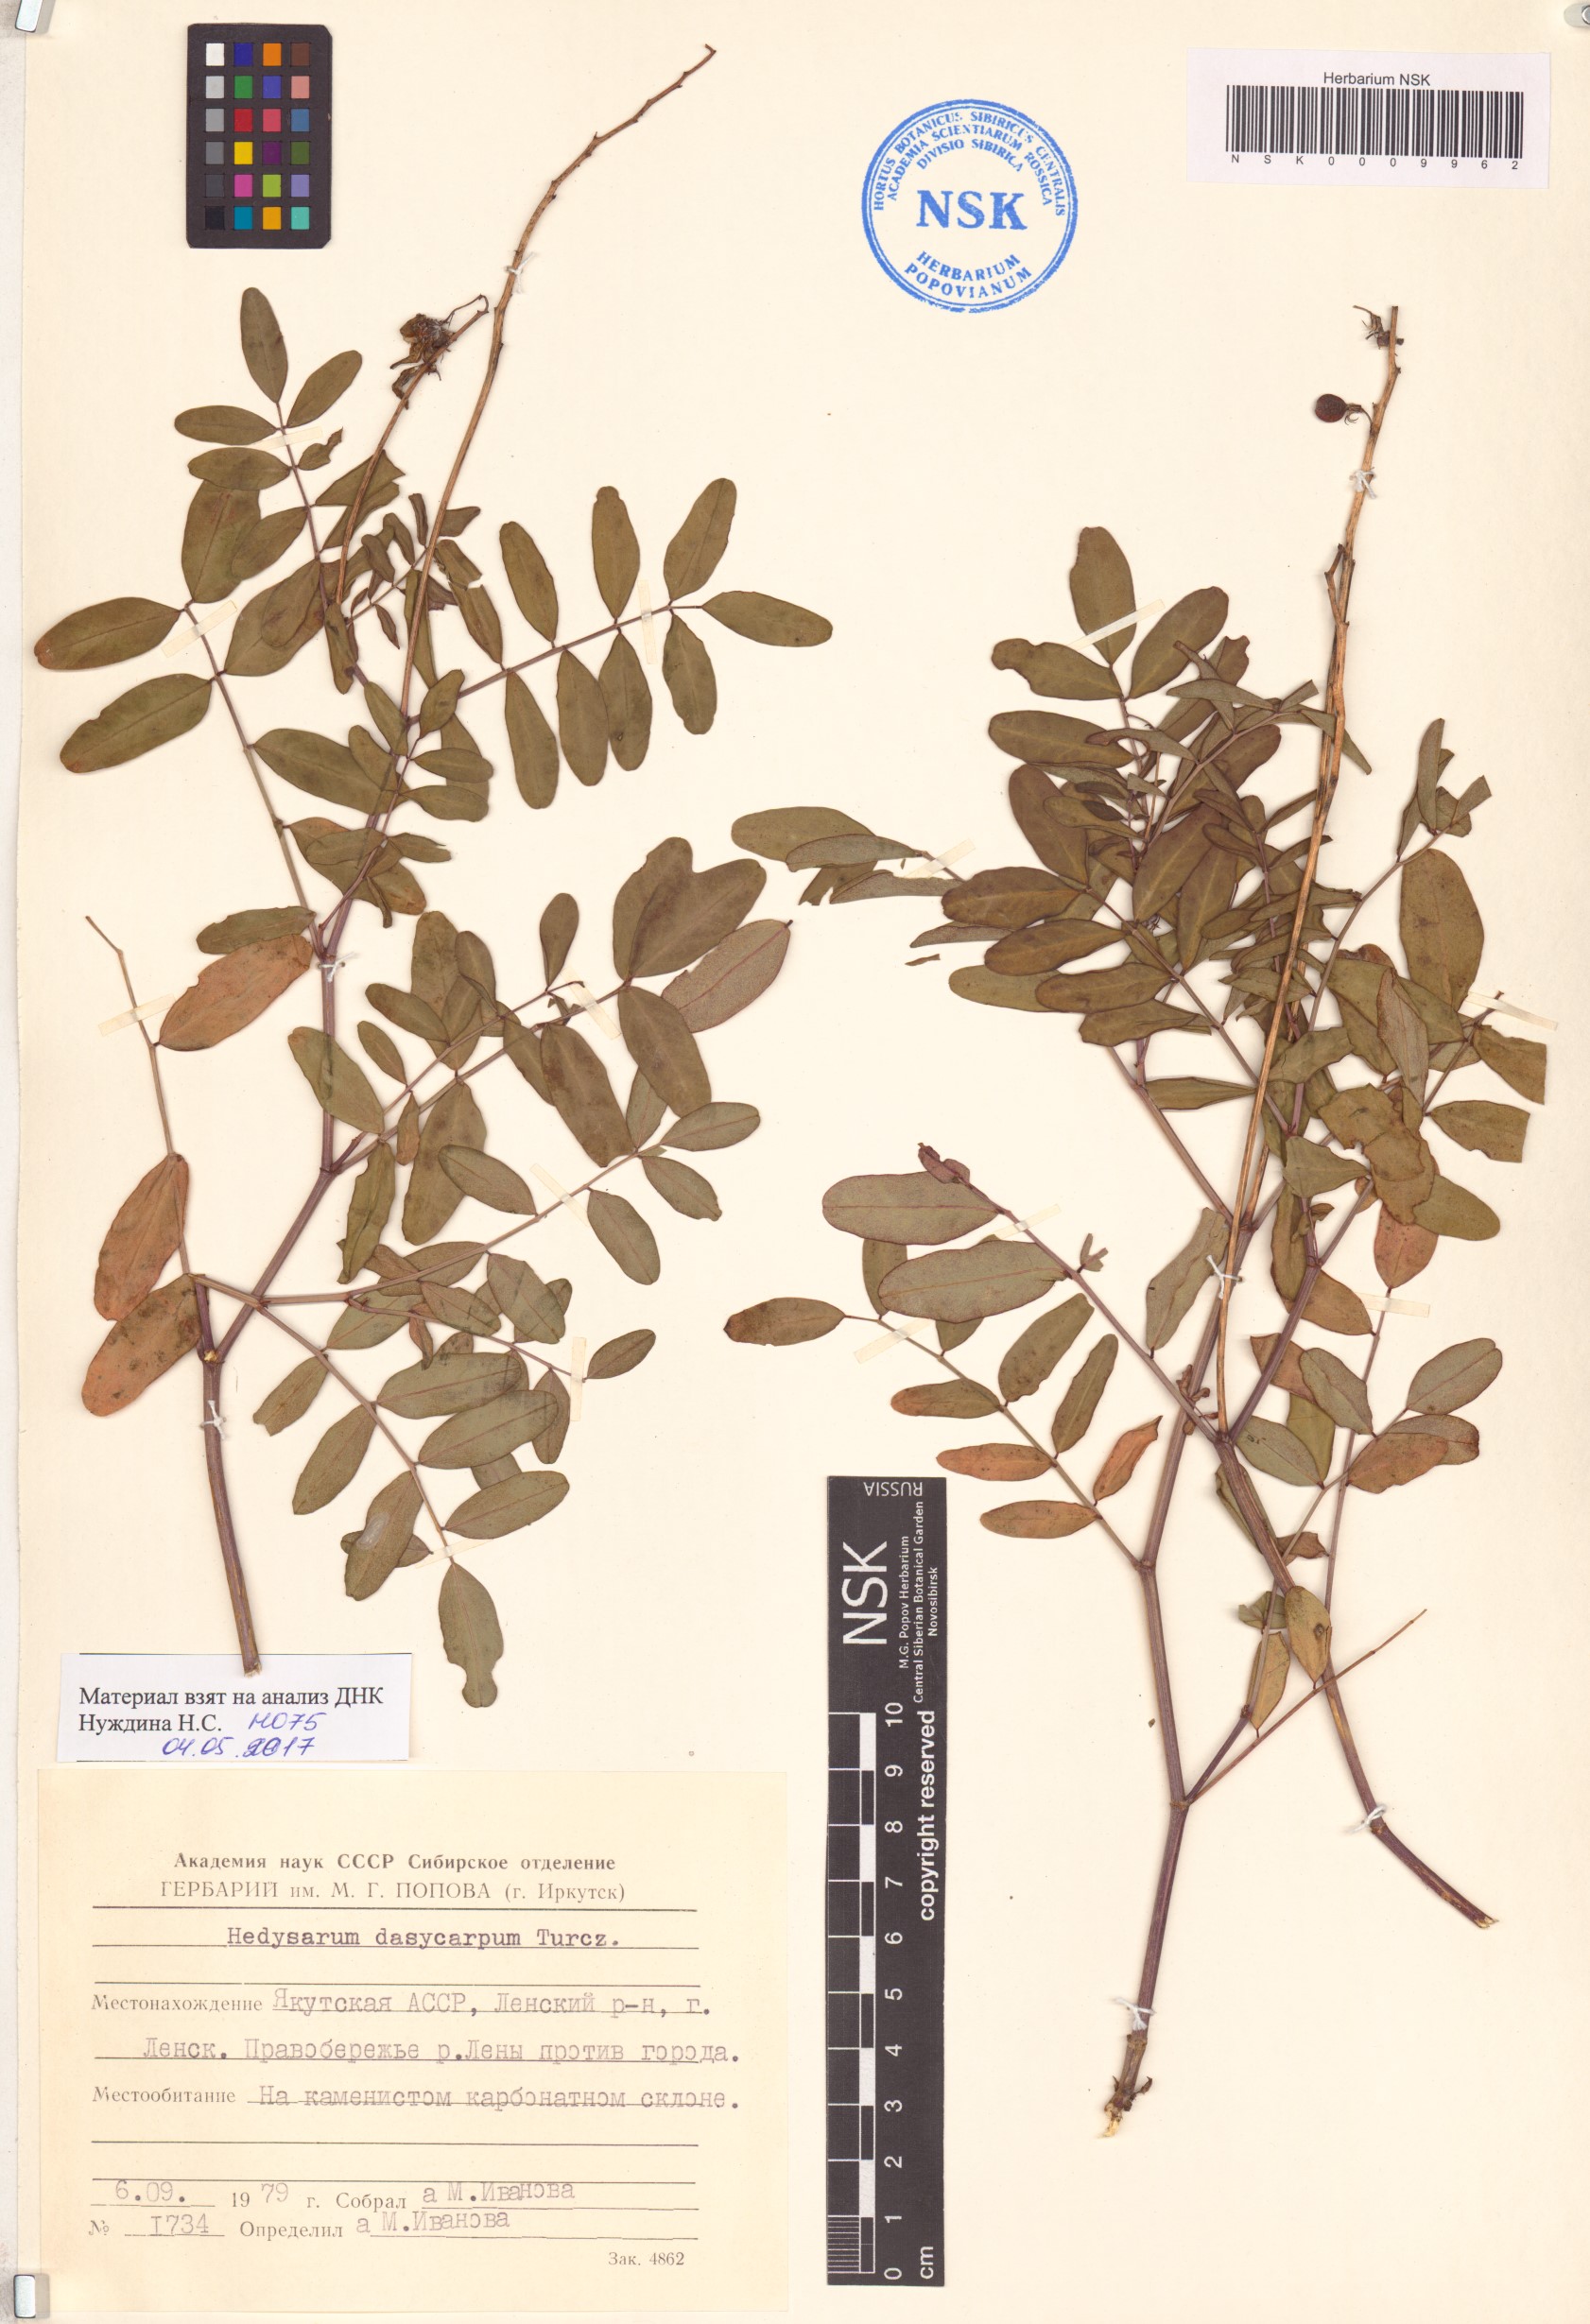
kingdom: Plantae
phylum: Tracheophyta
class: Magnoliopsida
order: Fabales
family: Fabaceae
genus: Hedysarum
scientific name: Hedysarum dasycarpum
